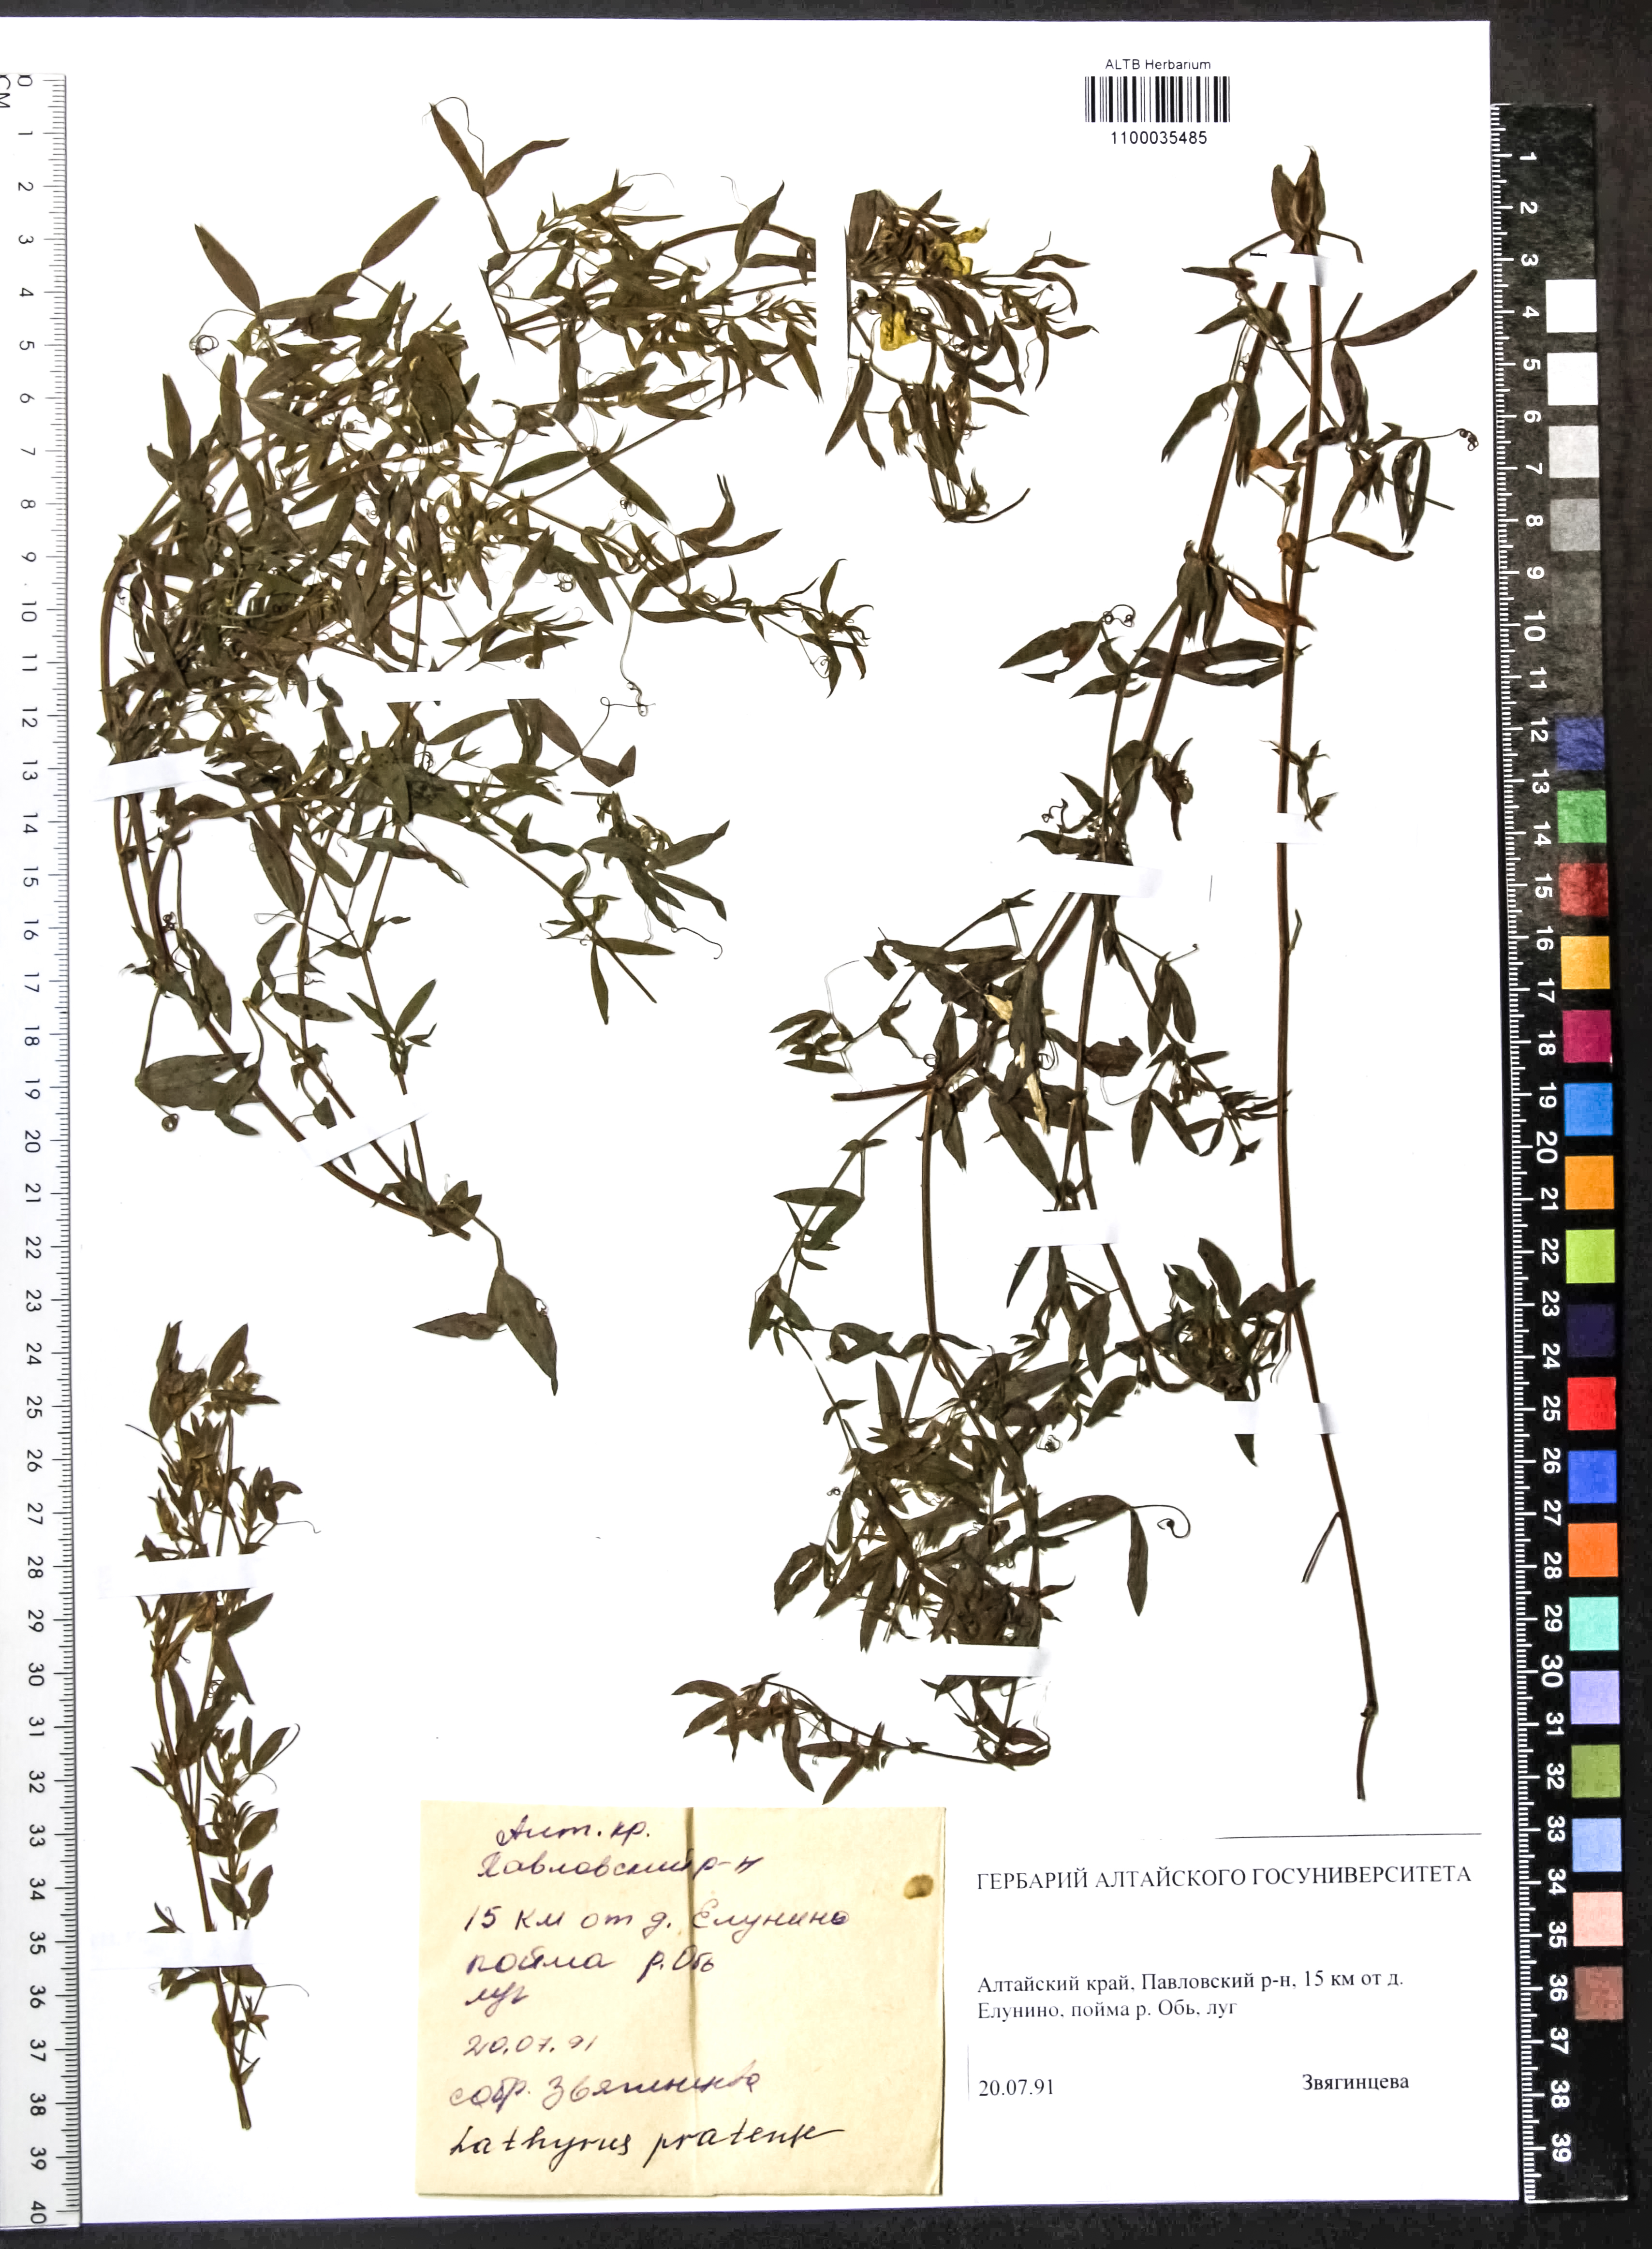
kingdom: Plantae
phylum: Tracheophyta
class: Magnoliopsida
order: Fabales
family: Fabaceae
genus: Lathyrus
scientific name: Lathyrus pratensis
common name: Meadow vetchling
